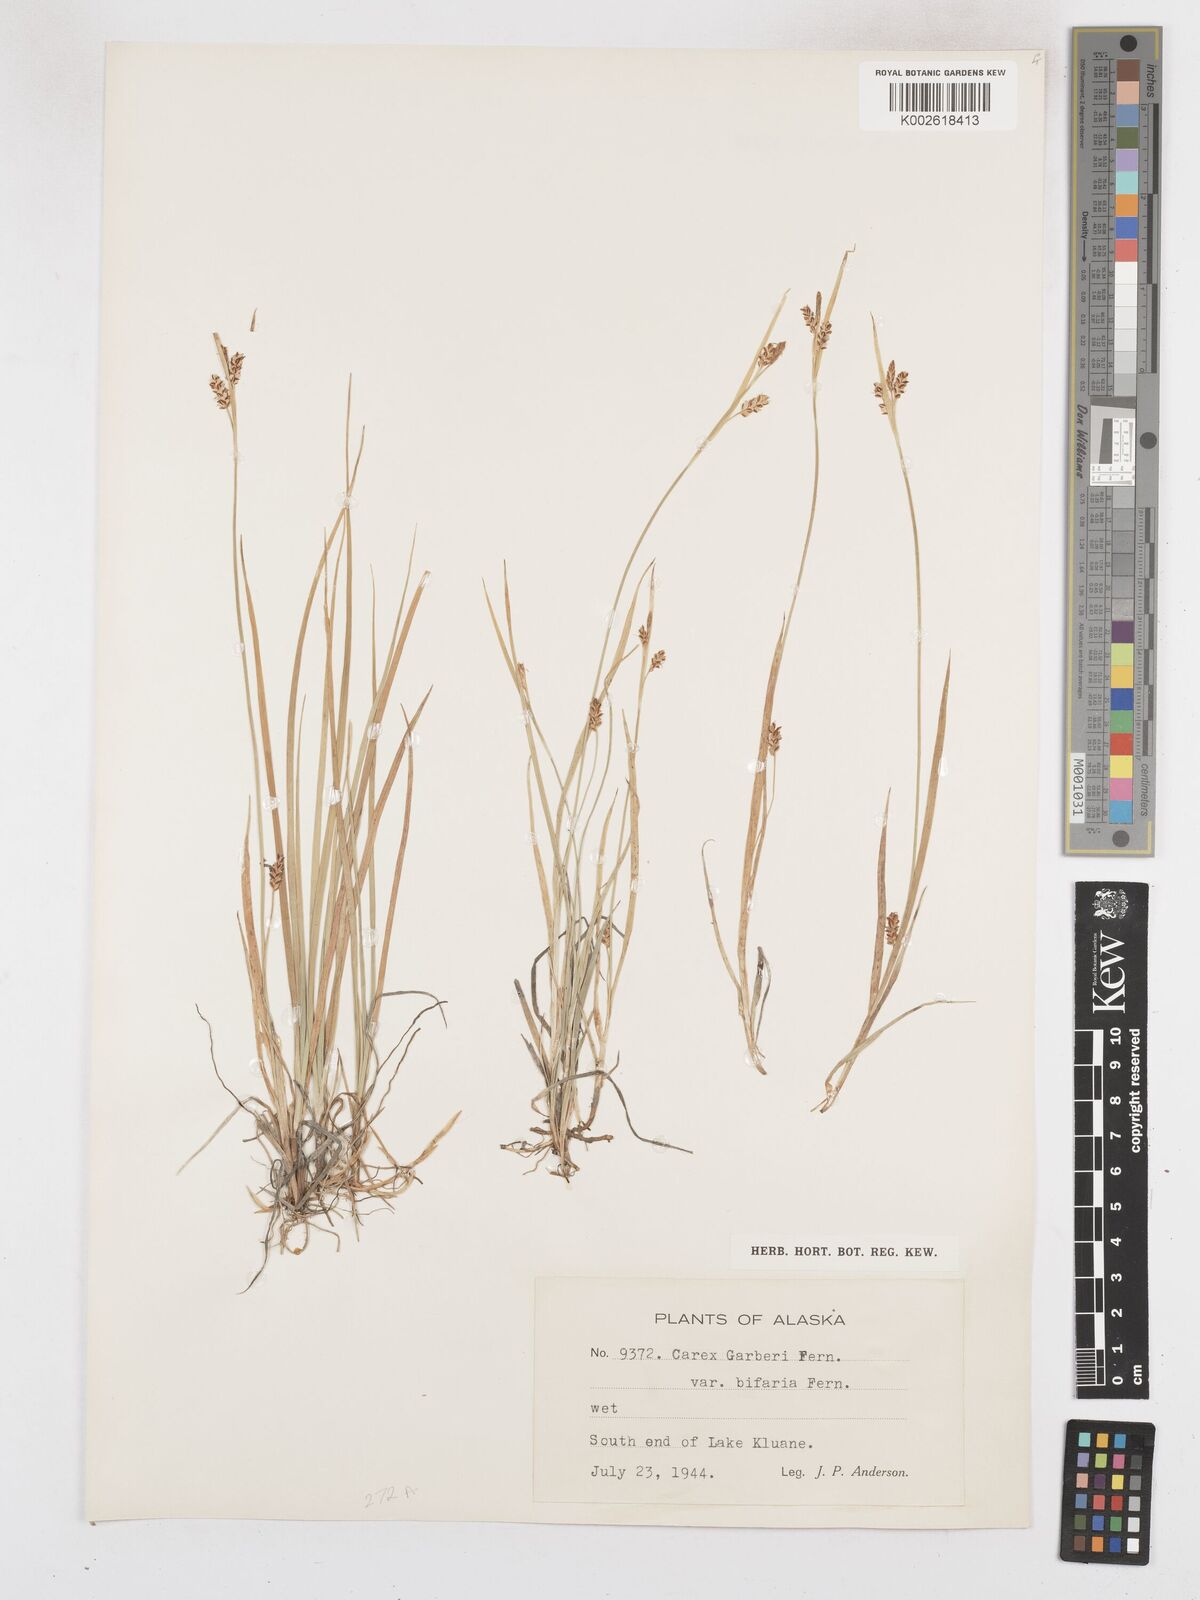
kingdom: Plantae
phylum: Tracheophyta
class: Liliopsida
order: Poales
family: Cyperaceae
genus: Carex
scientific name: Carex garberi
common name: Elk sedge
